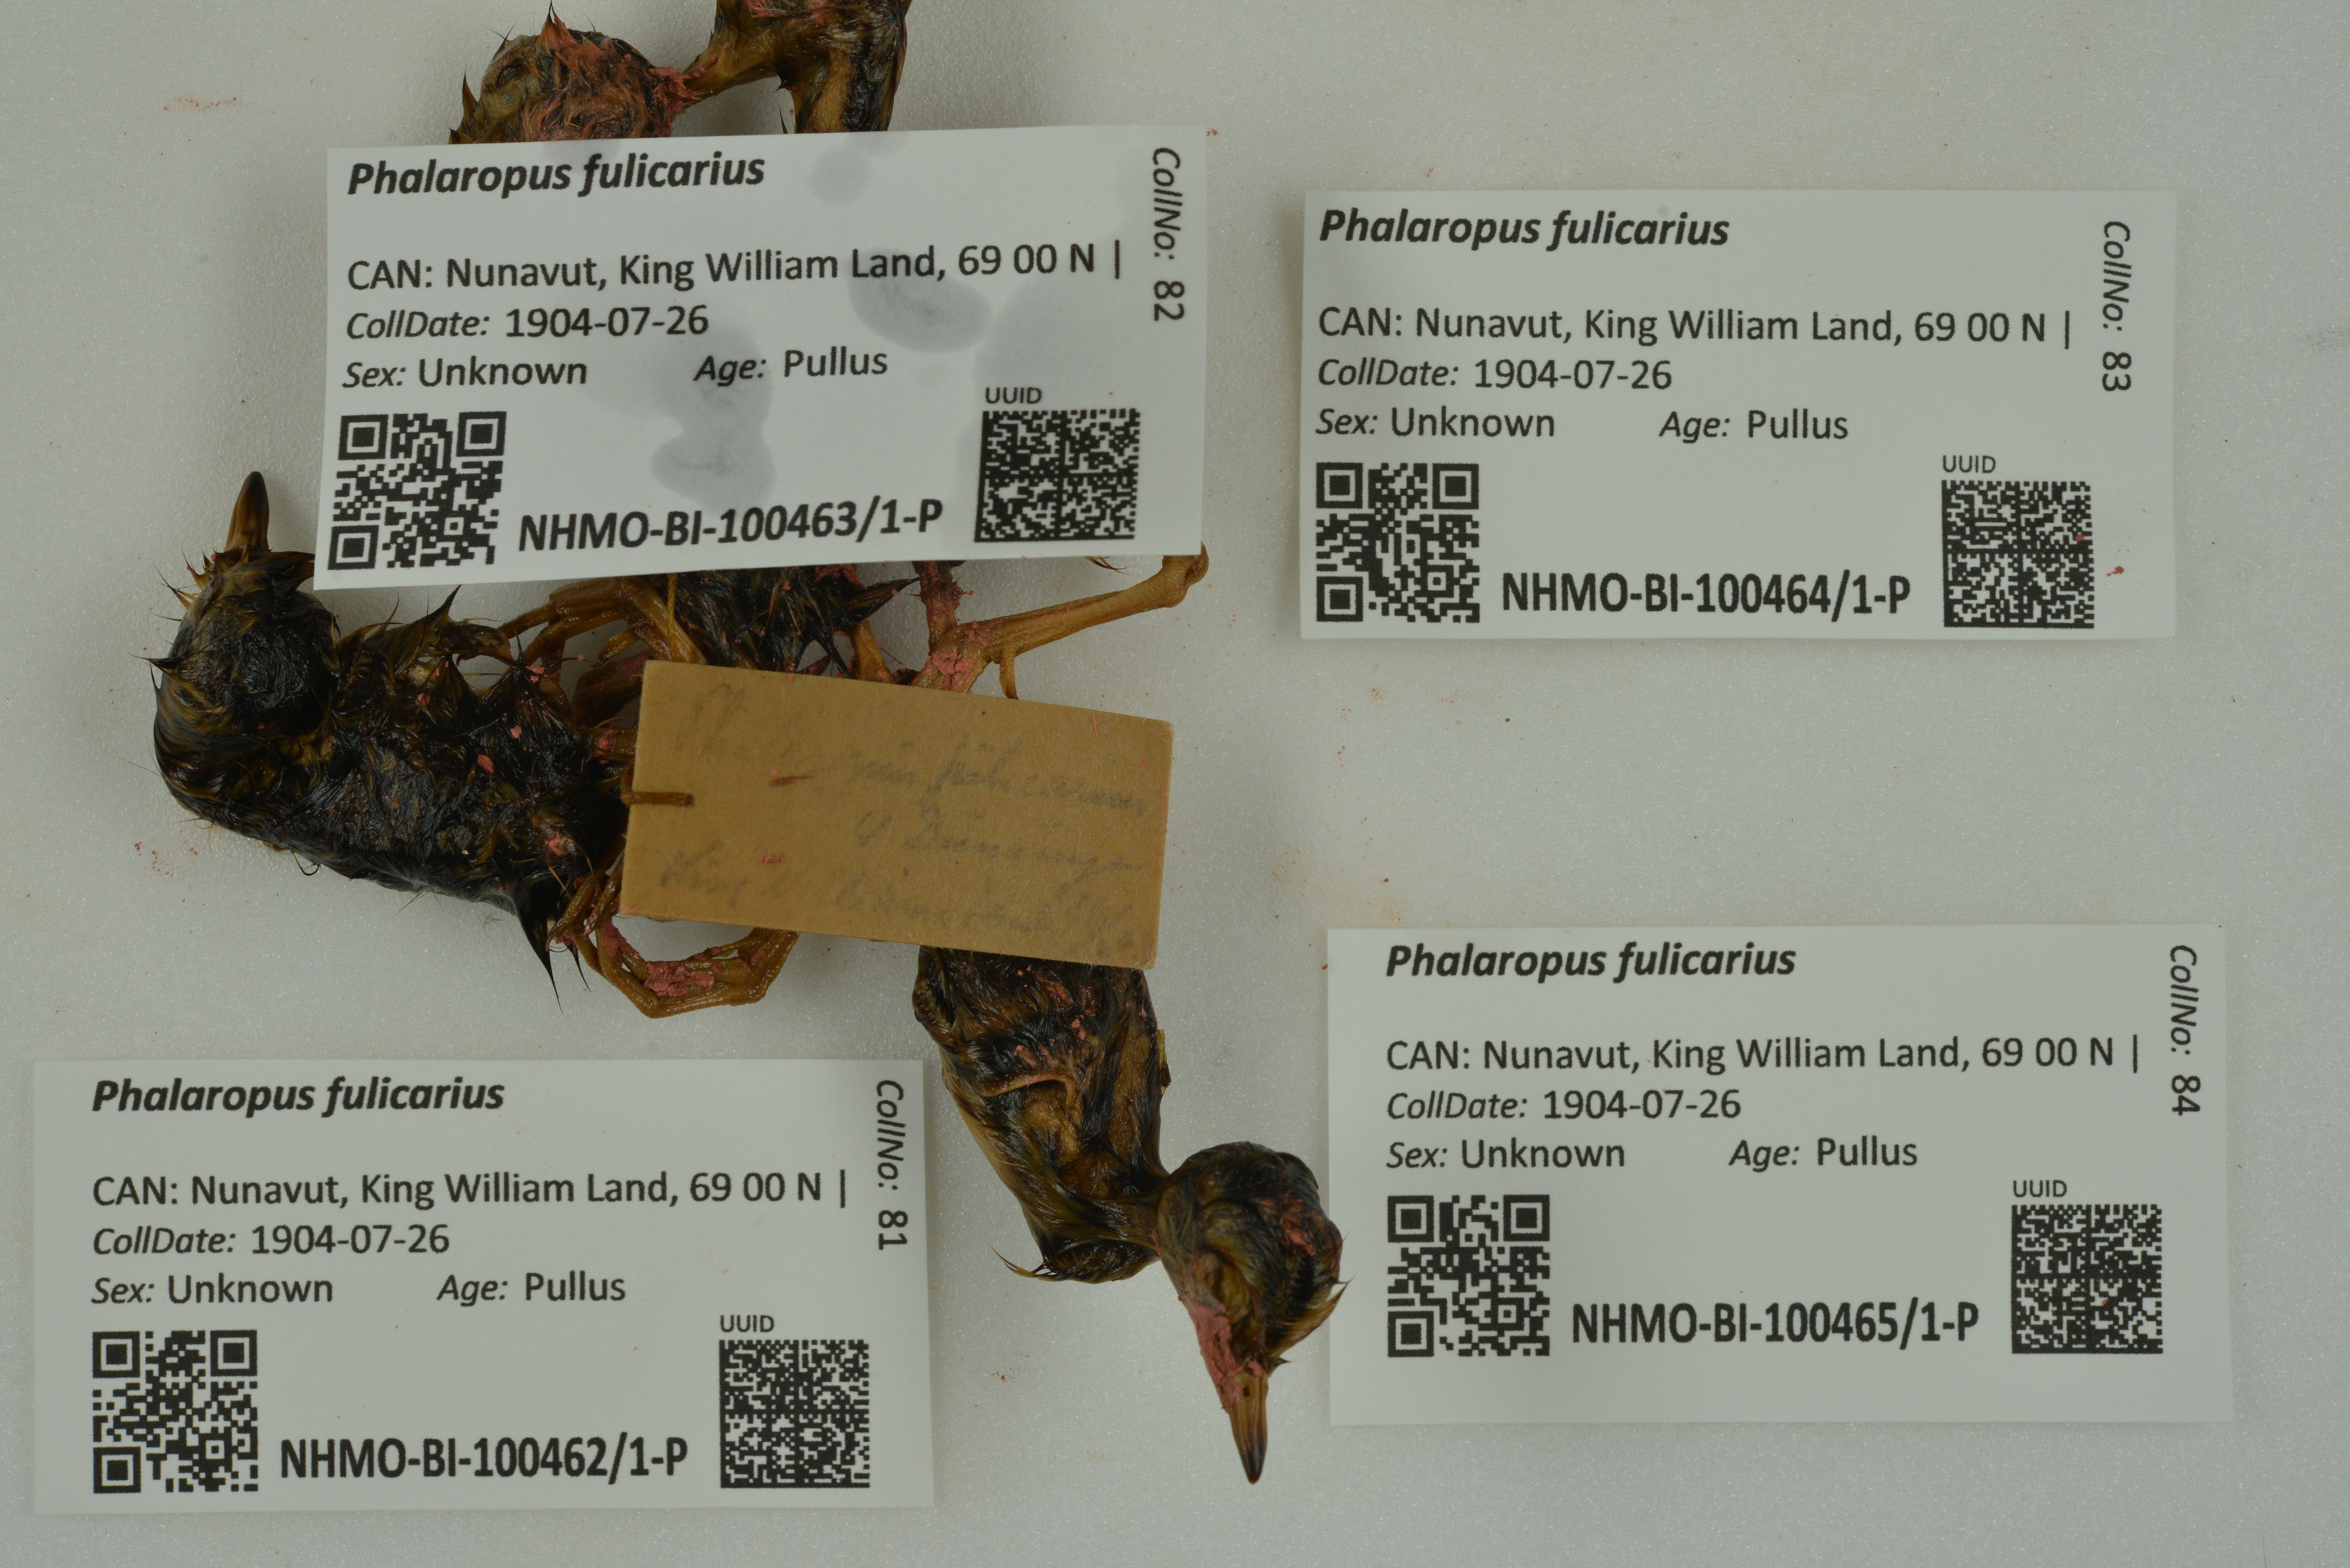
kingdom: Animalia
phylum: Chordata
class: Aves
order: Charadriiformes
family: Scolopacidae
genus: Phalaropus
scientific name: Phalaropus fulicarius
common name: Red phalarope
